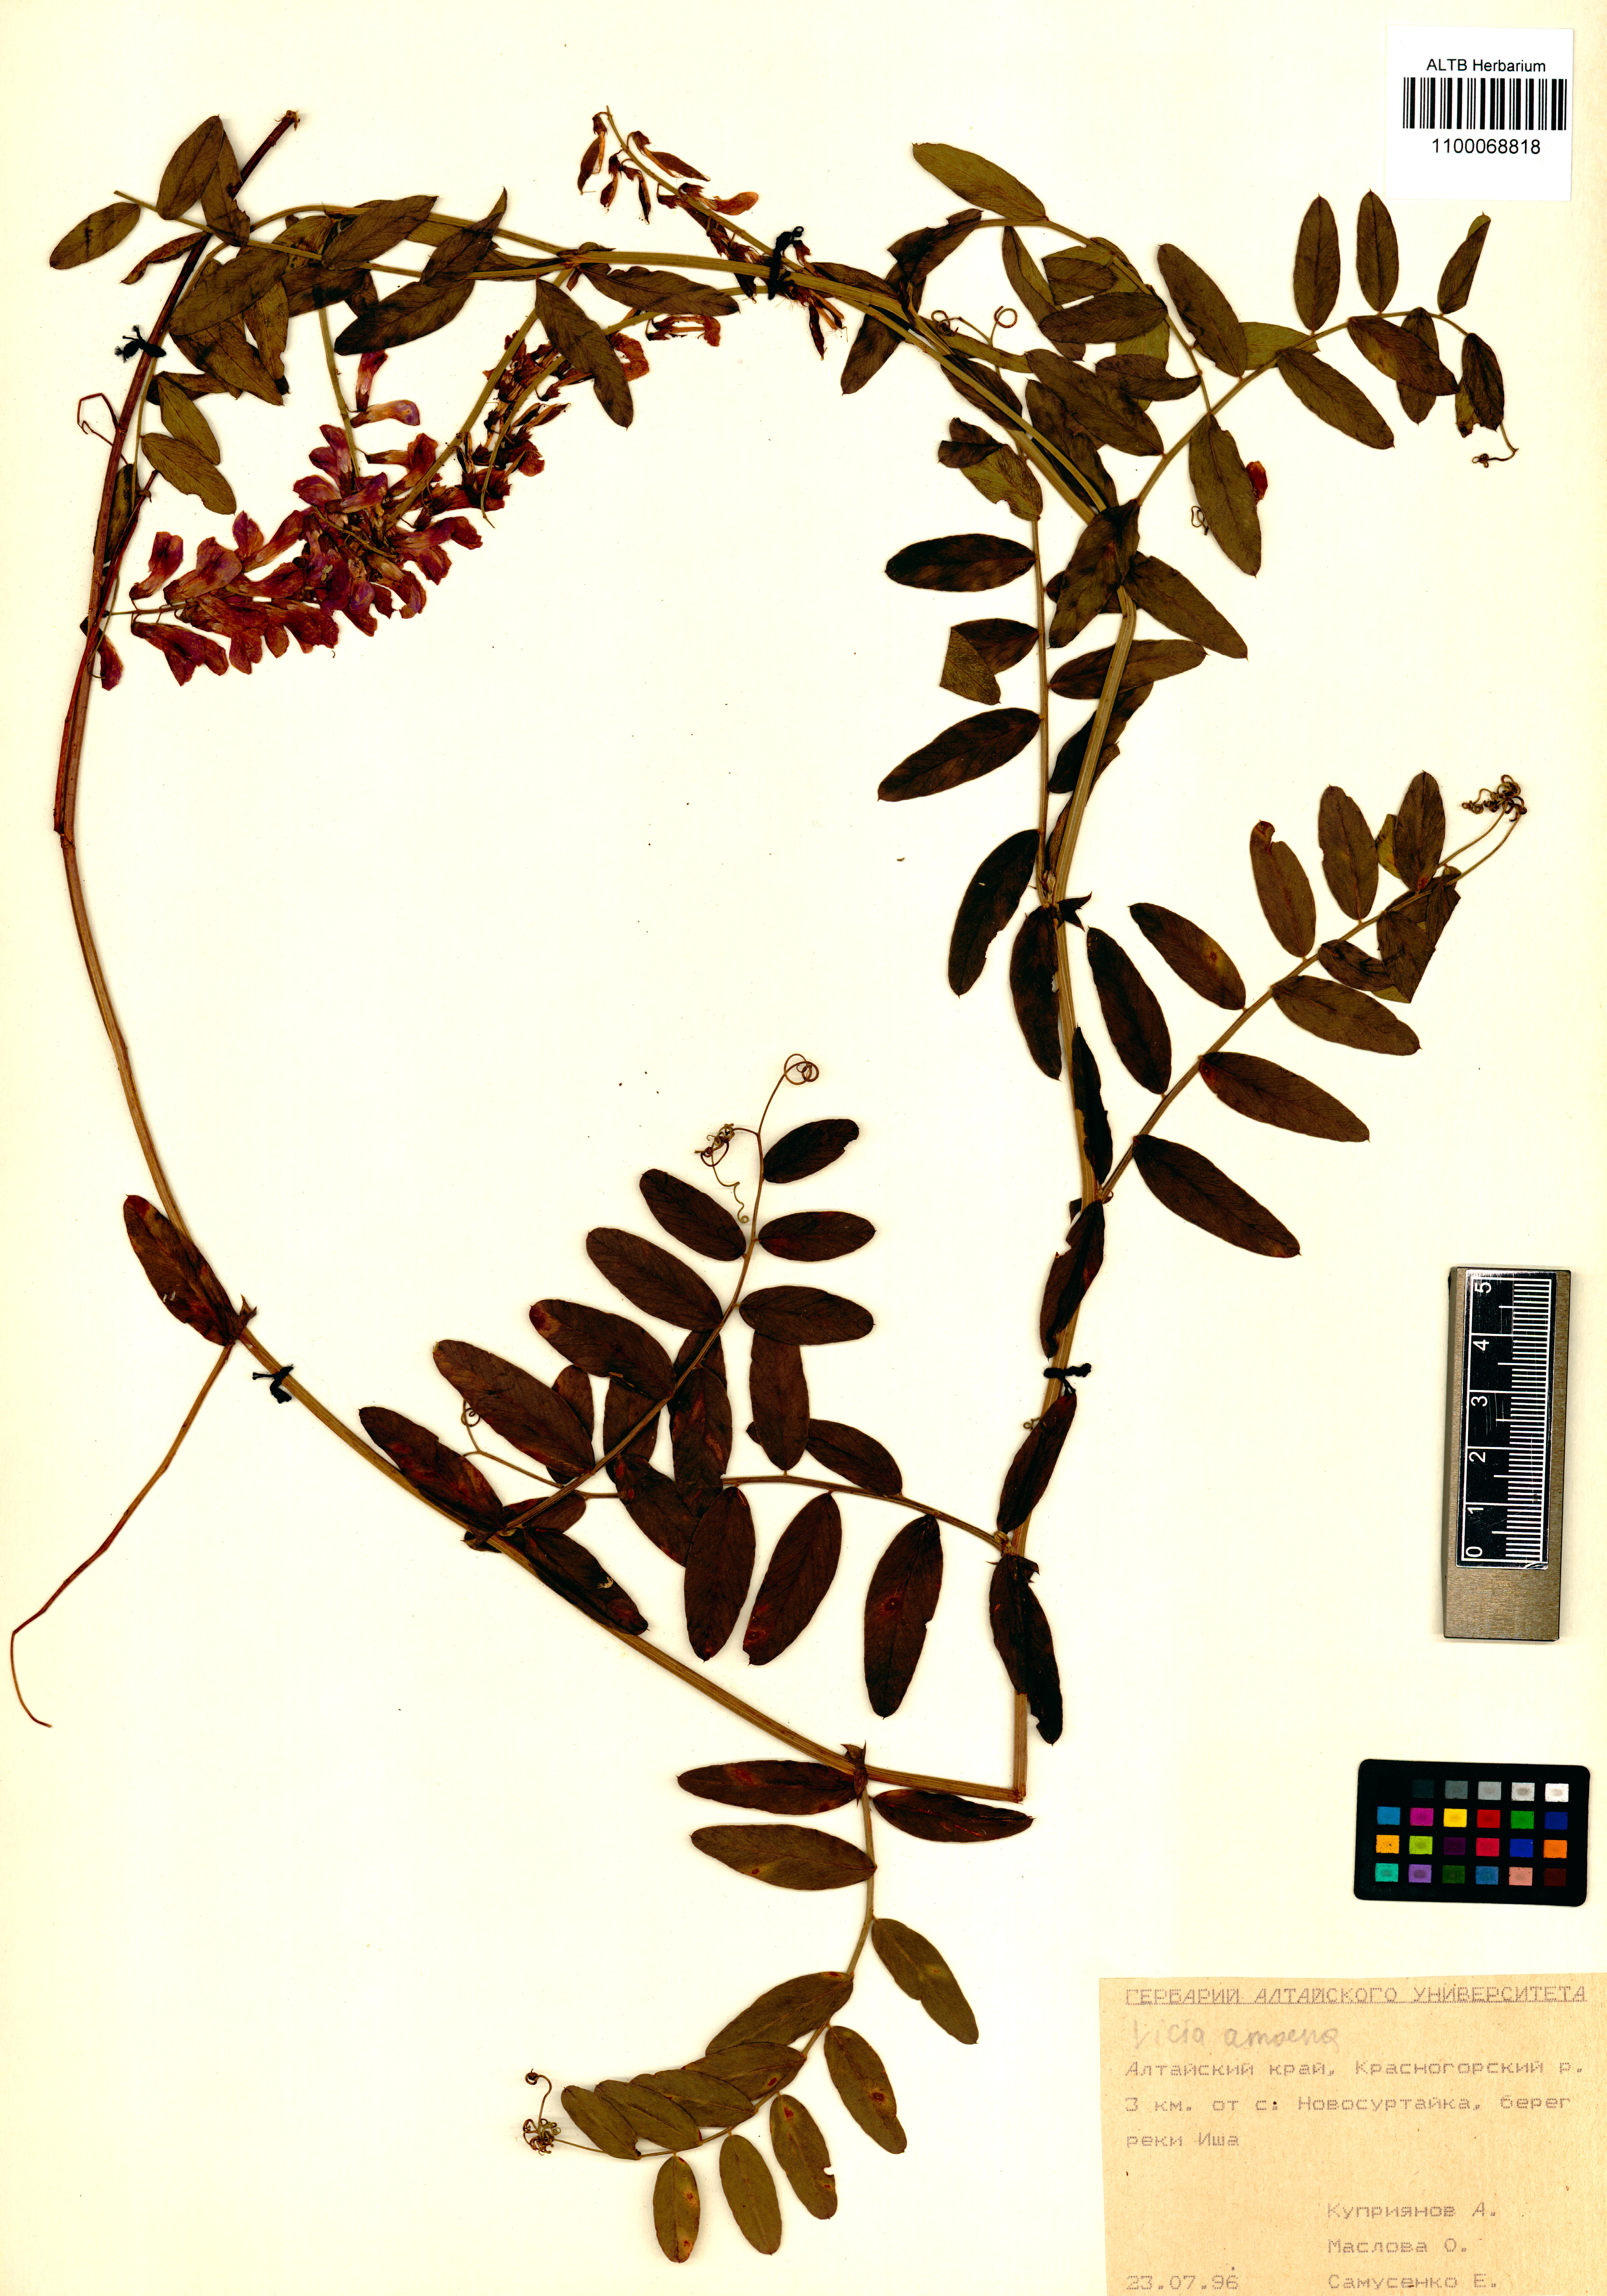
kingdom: Plantae
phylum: Tracheophyta
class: Magnoliopsida
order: Fabales
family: Fabaceae
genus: Vicia
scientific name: Vicia amoena
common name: Cheder ebs
